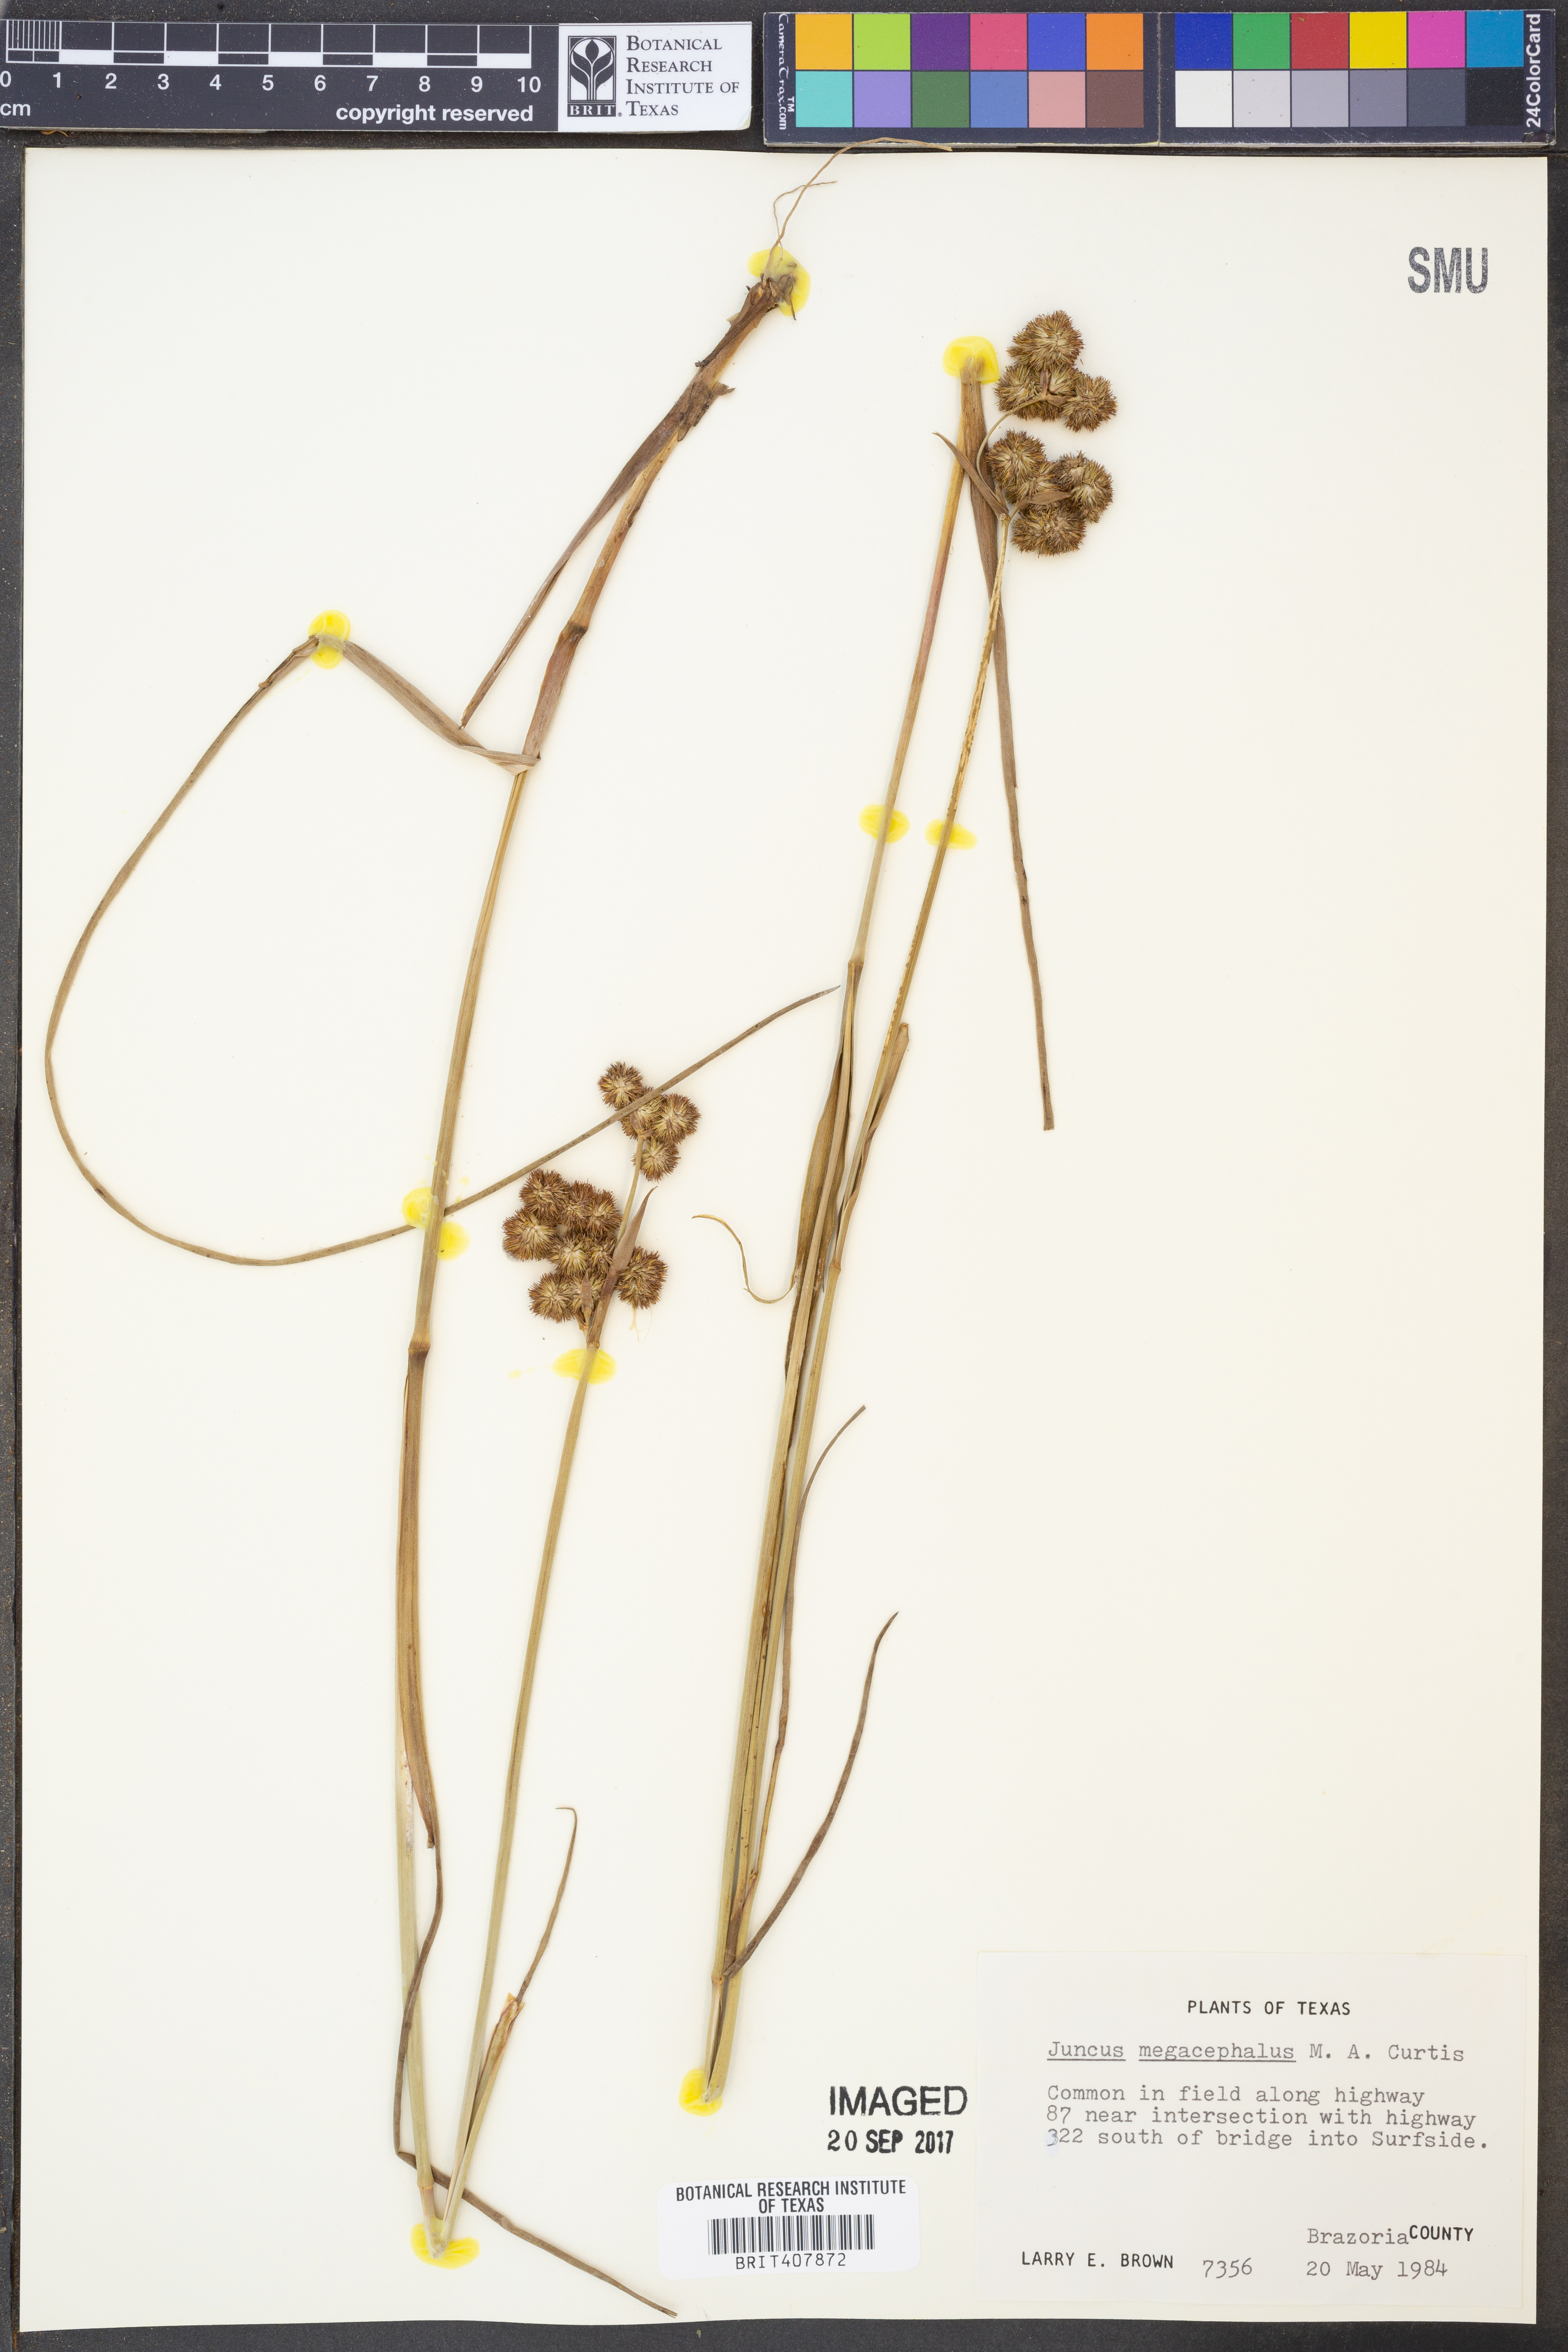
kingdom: Plantae
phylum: Tracheophyta
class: Liliopsida
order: Poales
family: Juncaceae
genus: Juncus
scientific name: Juncus megacephalus
